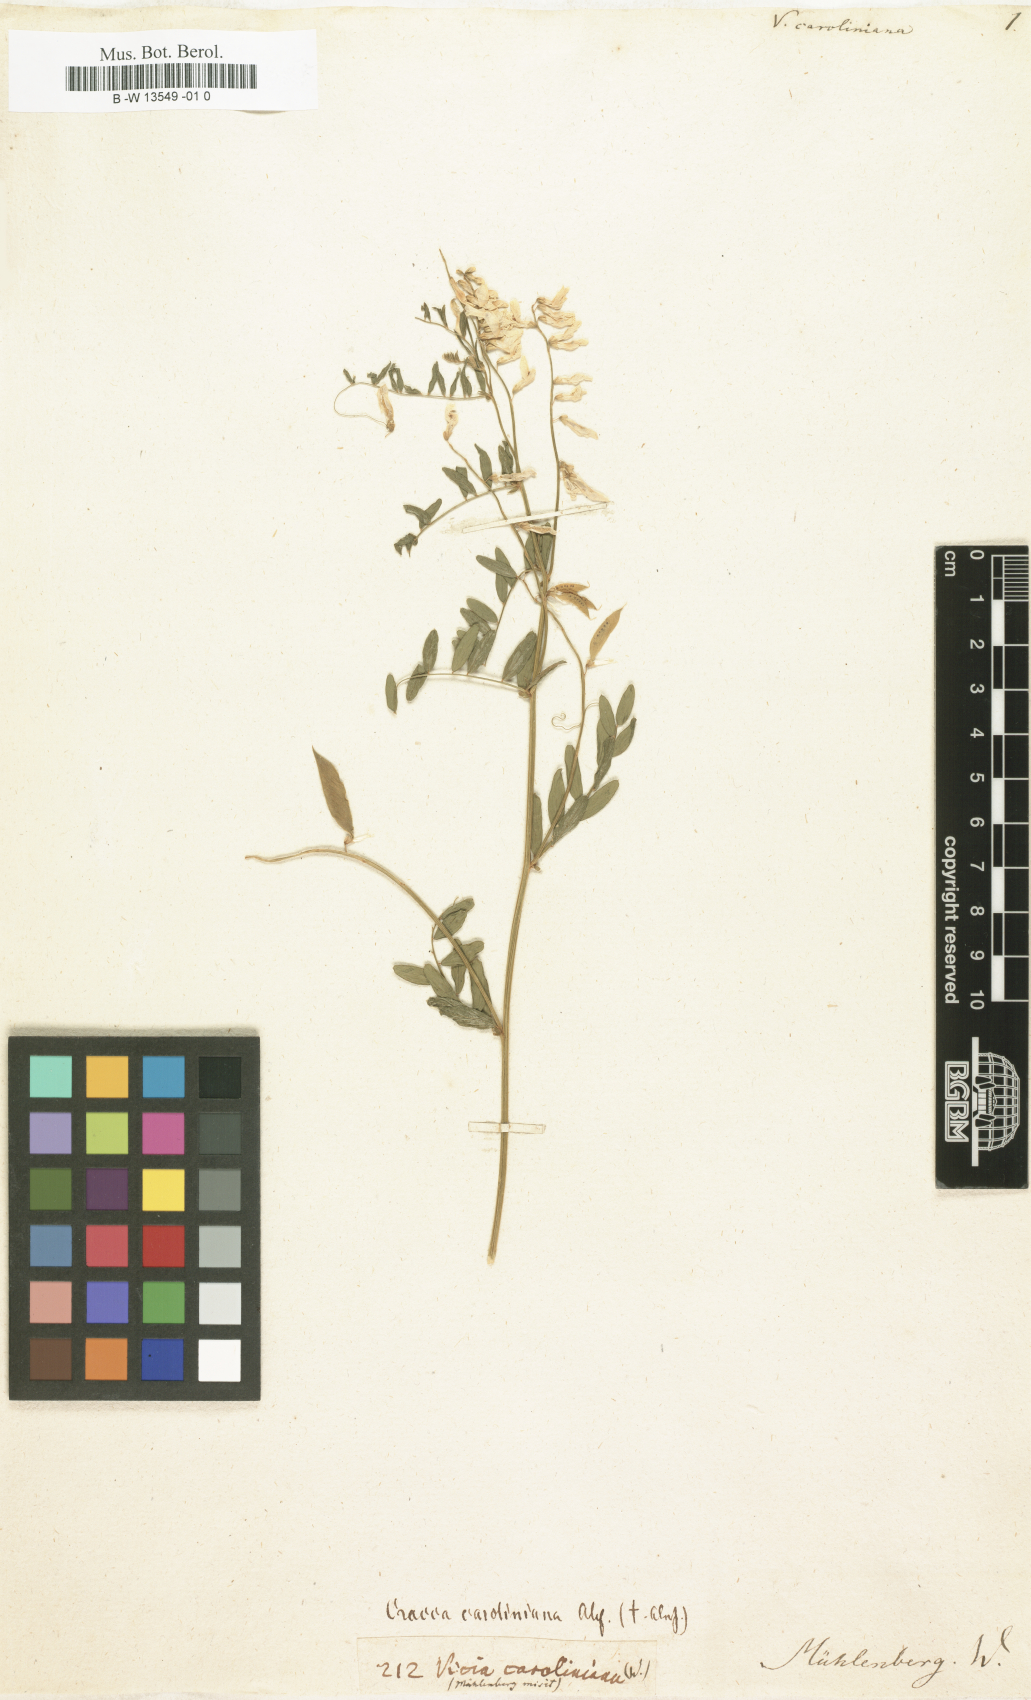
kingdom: Plantae
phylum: Tracheophyta
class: Magnoliopsida
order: Fabales
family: Fabaceae
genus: Vicia
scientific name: Vicia caroliniana
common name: Carolina vetch
